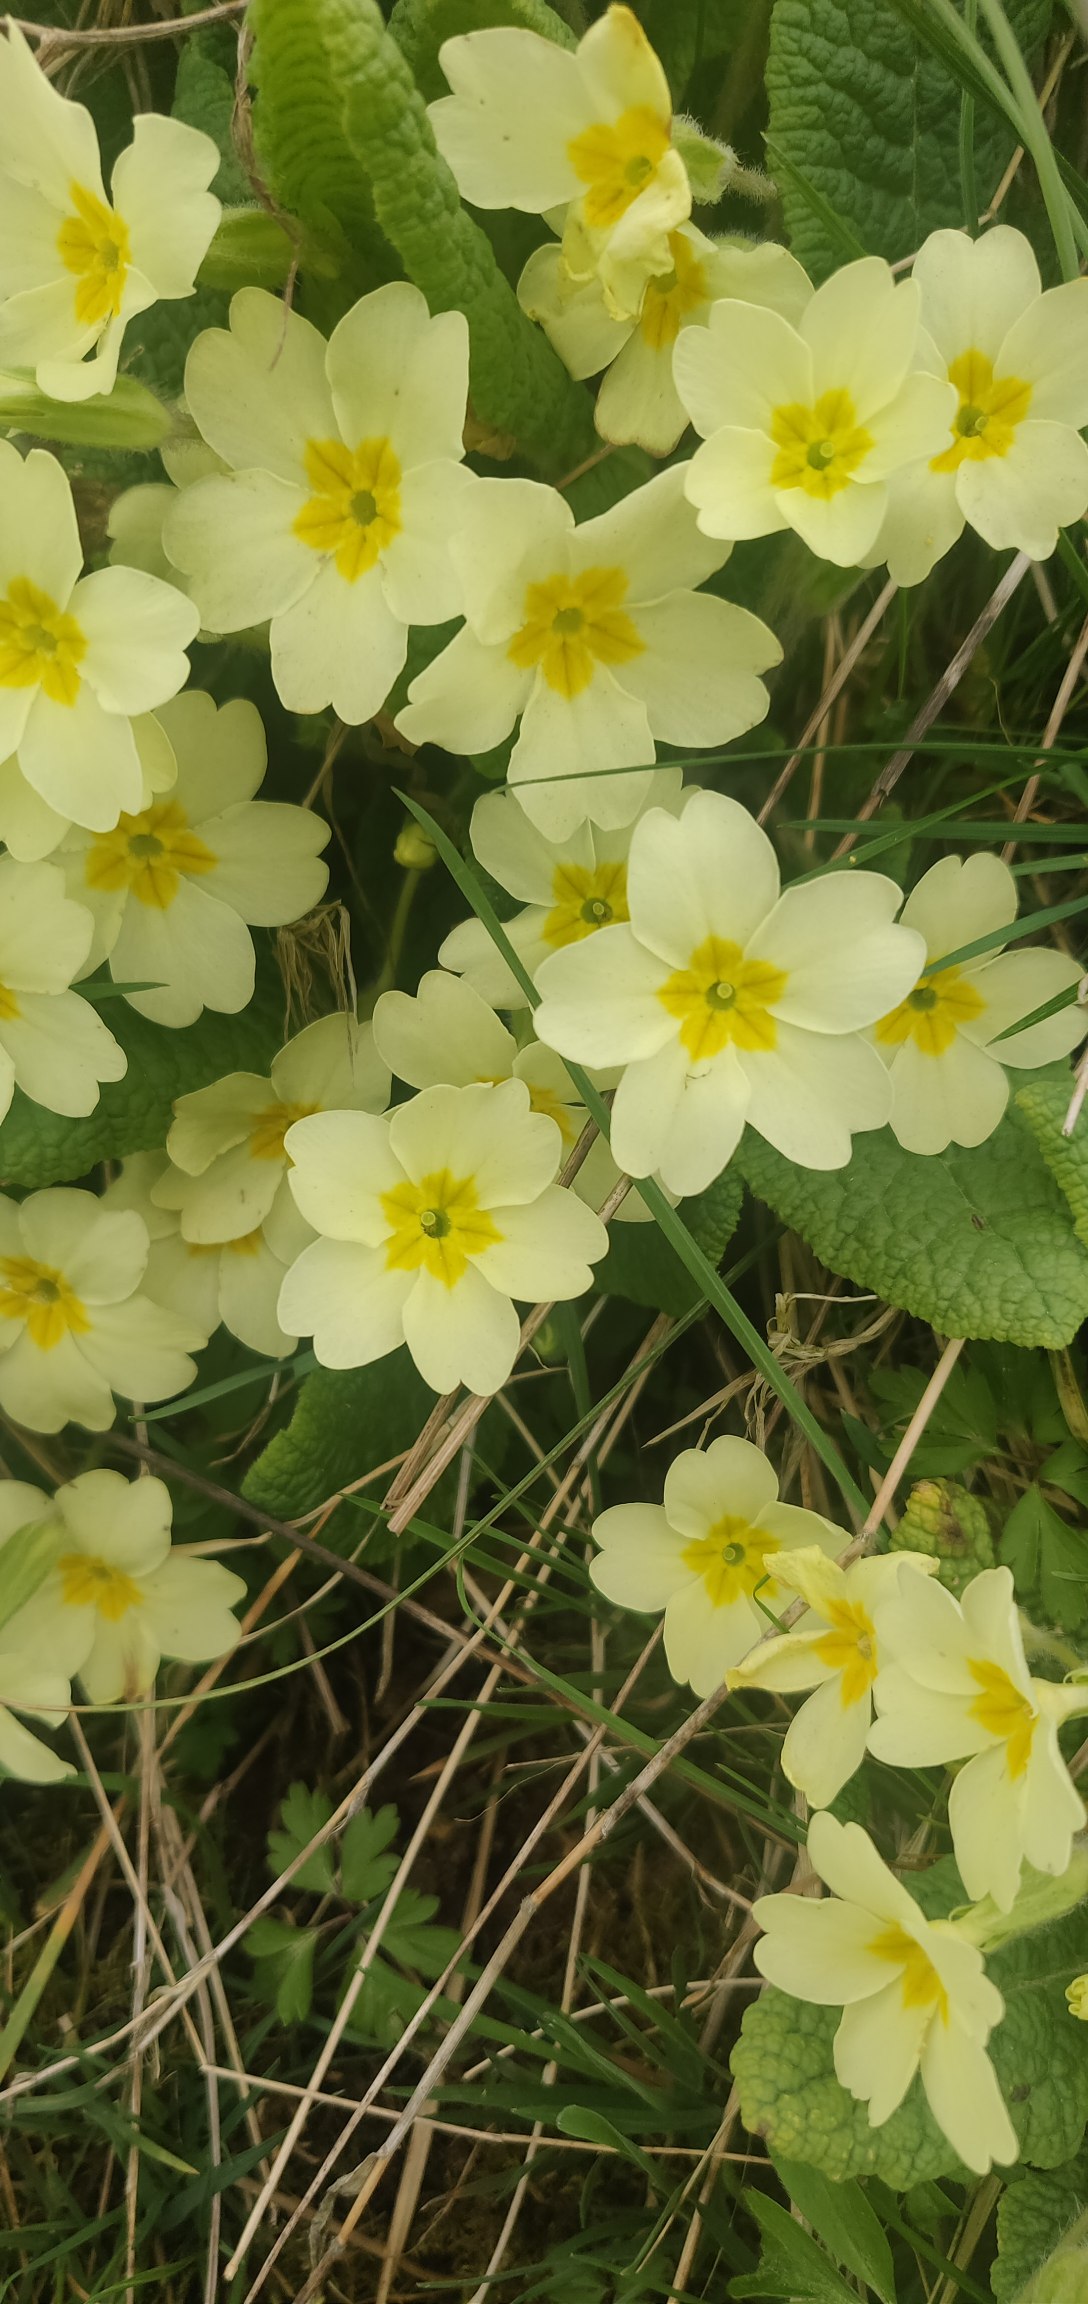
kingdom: Plantae
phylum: Tracheophyta
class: Magnoliopsida
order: Ericales
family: Primulaceae
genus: Primula
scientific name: Primula vulgaris
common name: Storblomstret kodriver
